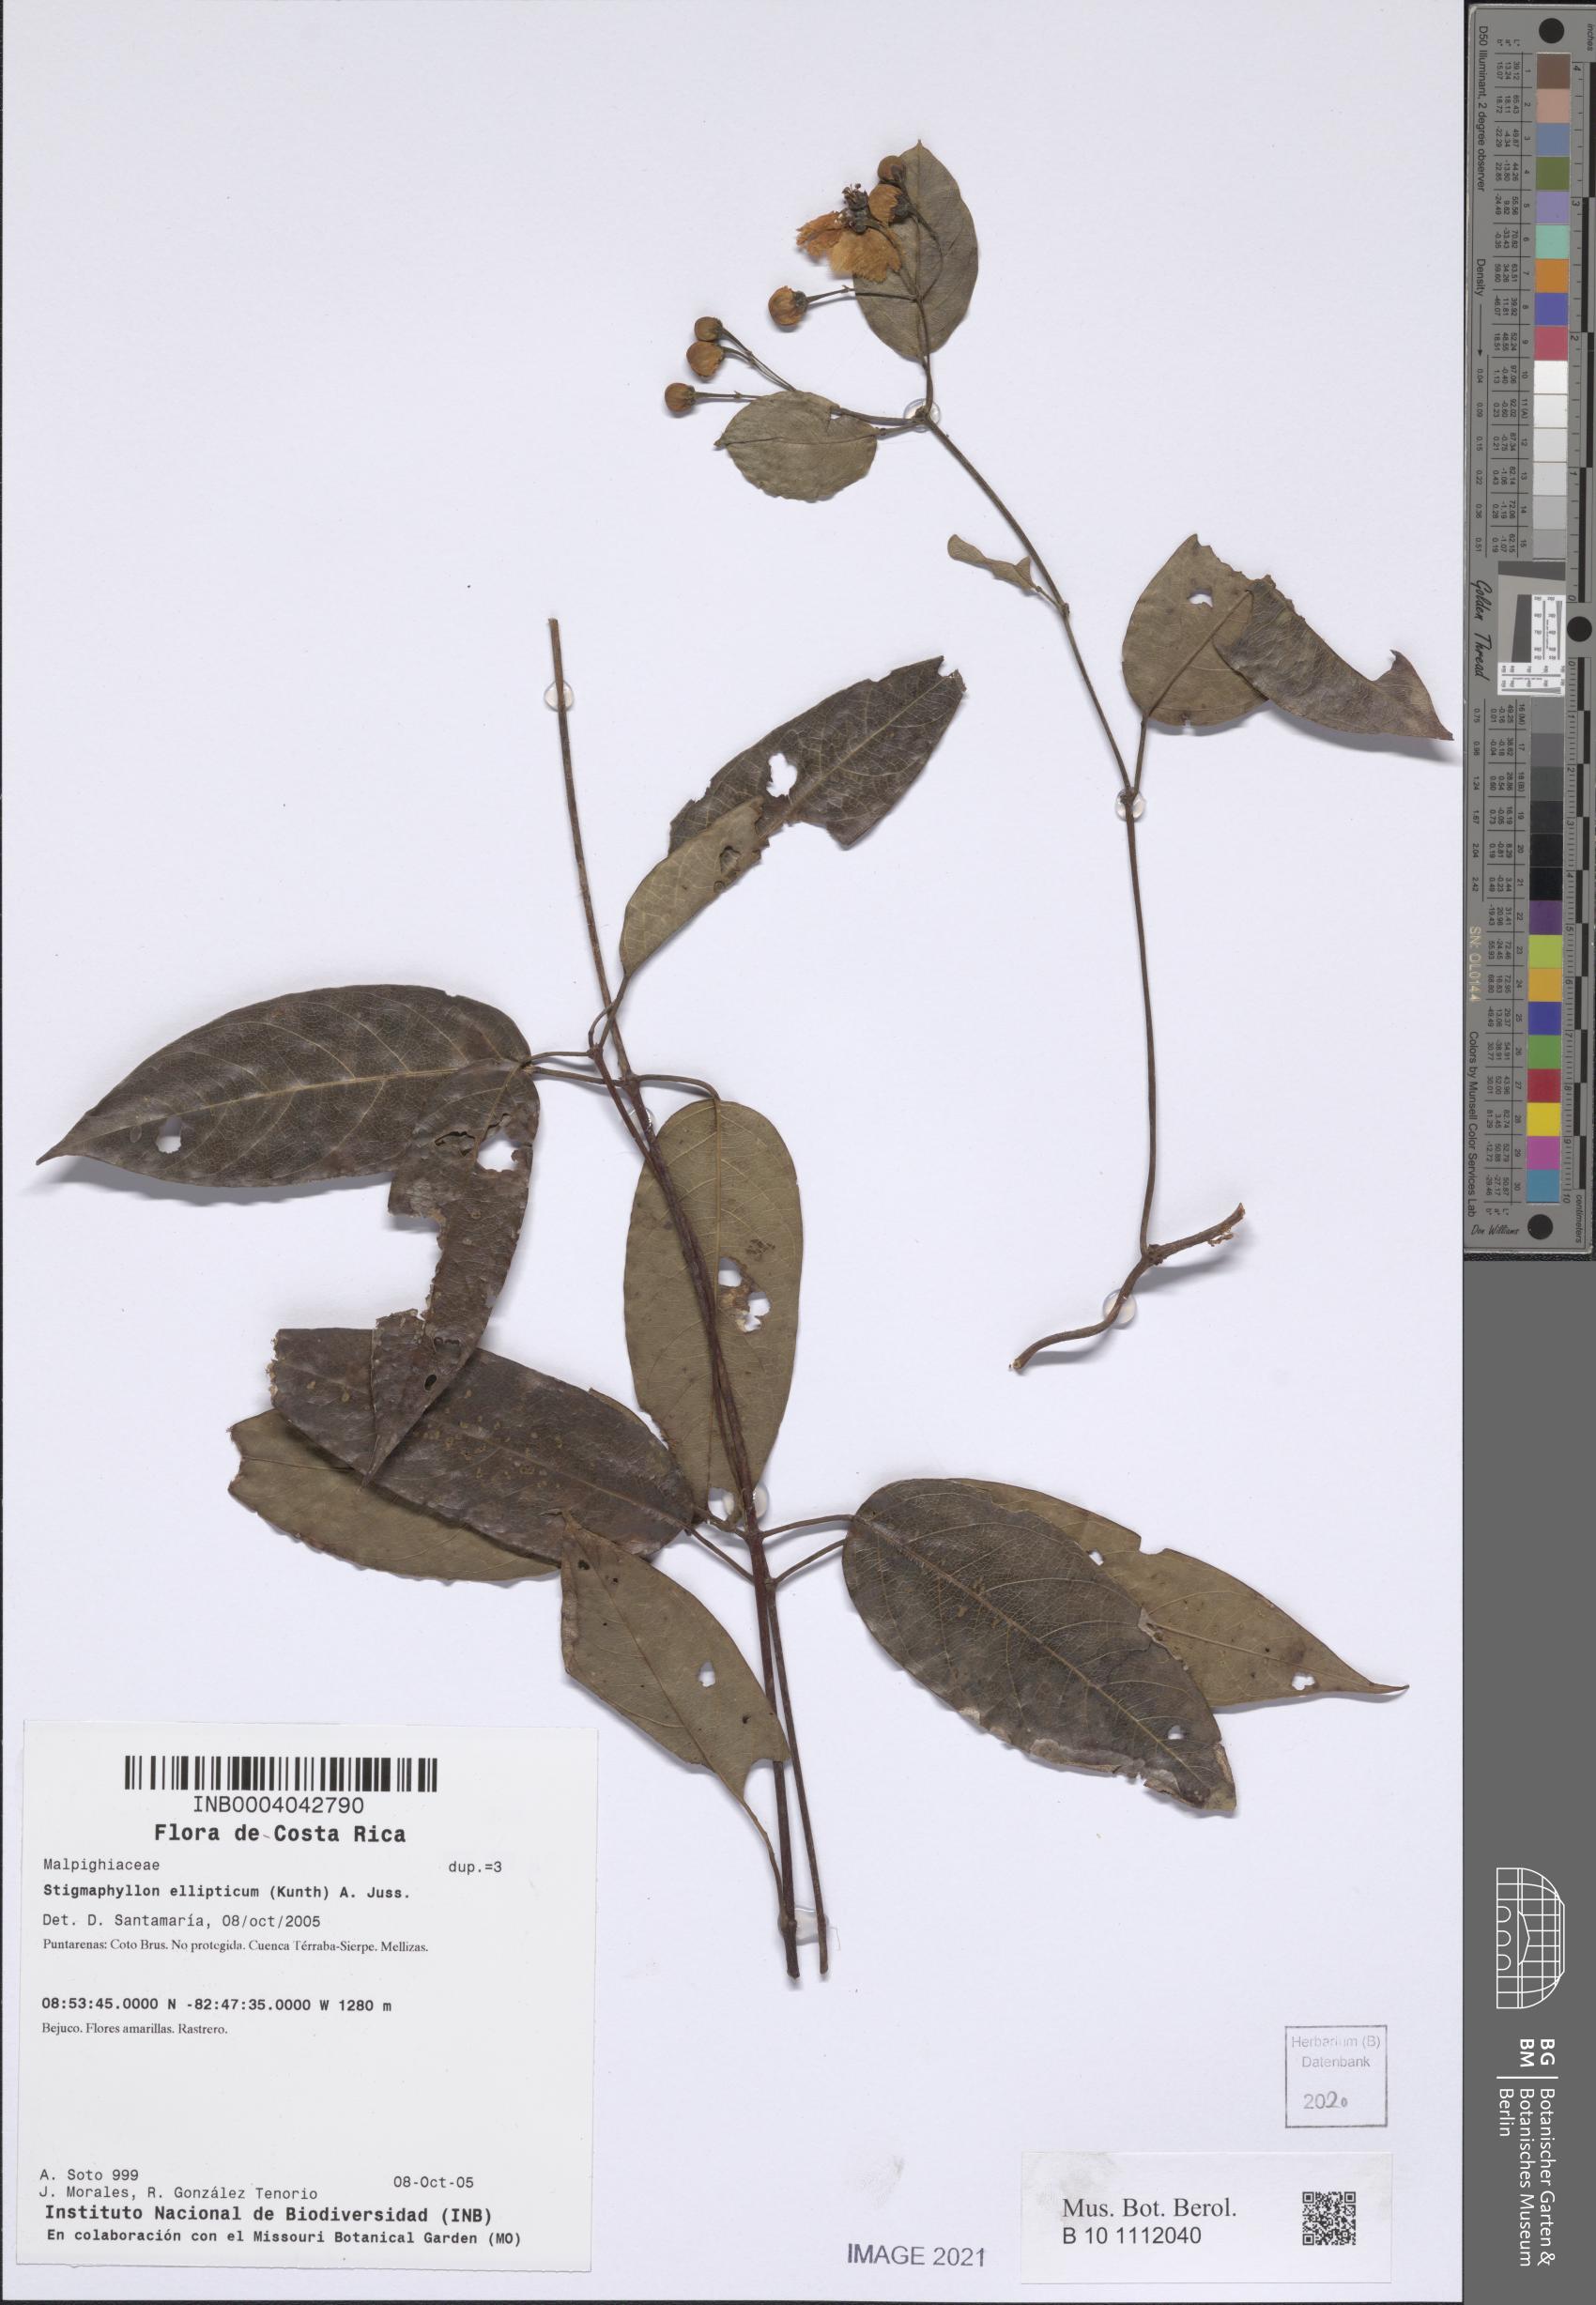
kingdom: Plantae
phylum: Tracheophyta
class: Magnoliopsida
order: Malpighiales
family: Malpighiaceae
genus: Stigmaphyllon
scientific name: Stigmaphyllon ellipticum
